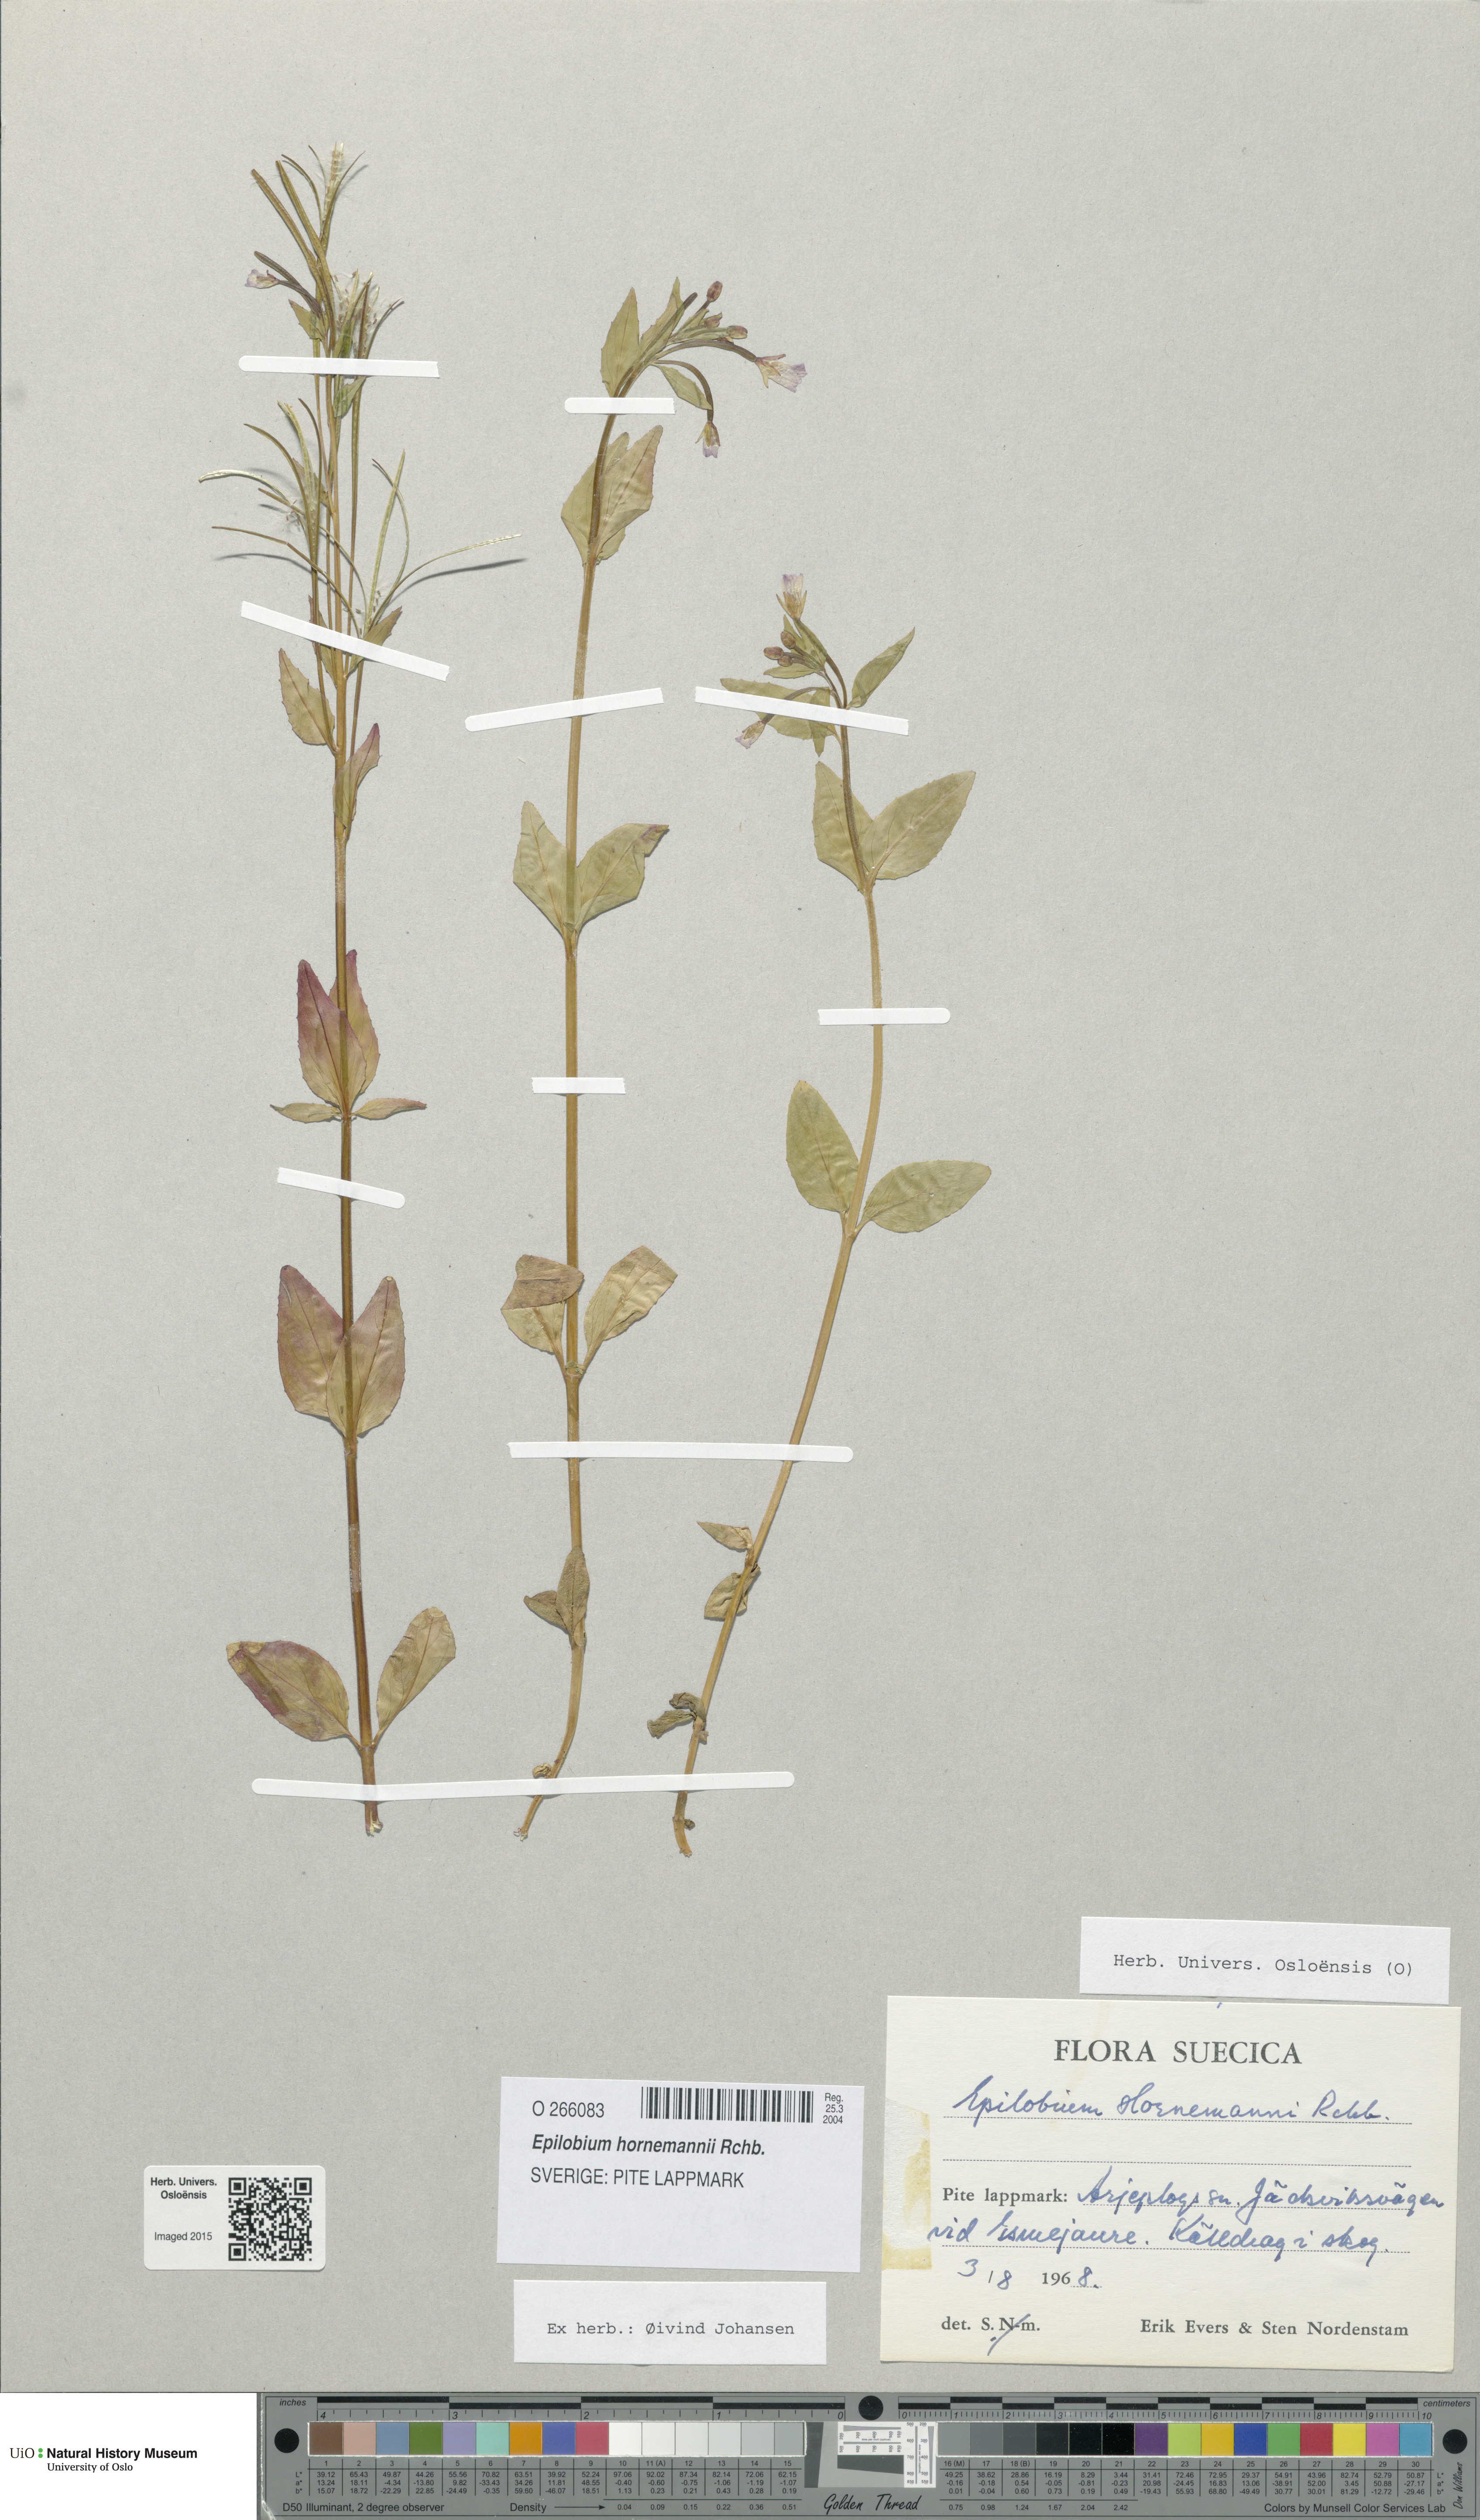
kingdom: Plantae
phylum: Tracheophyta
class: Magnoliopsida
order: Myrtales
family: Onagraceae
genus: Epilobium
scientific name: Epilobium hornemannii
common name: Hornemann's willowherb
